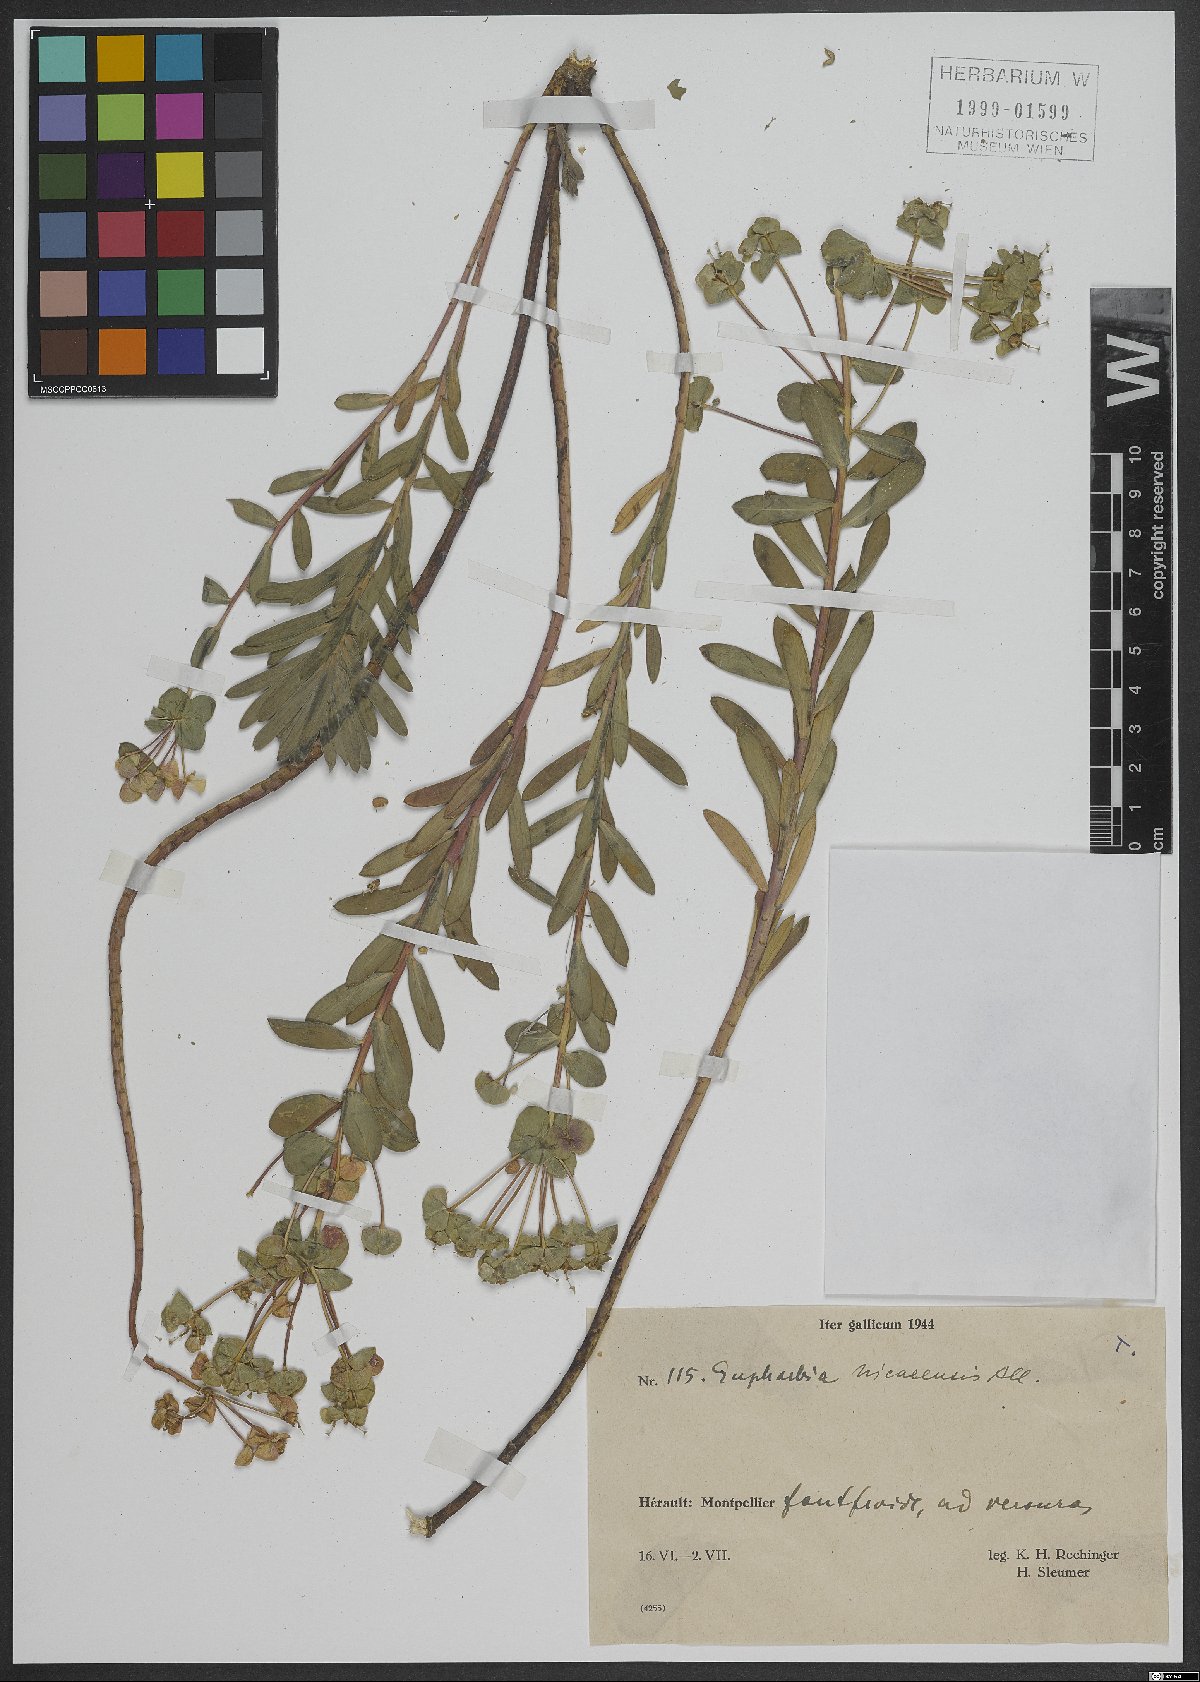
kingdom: Plantae
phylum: Tracheophyta
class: Magnoliopsida
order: Malpighiales
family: Euphorbiaceae
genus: Euphorbia
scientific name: Euphorbia nicaeensis
